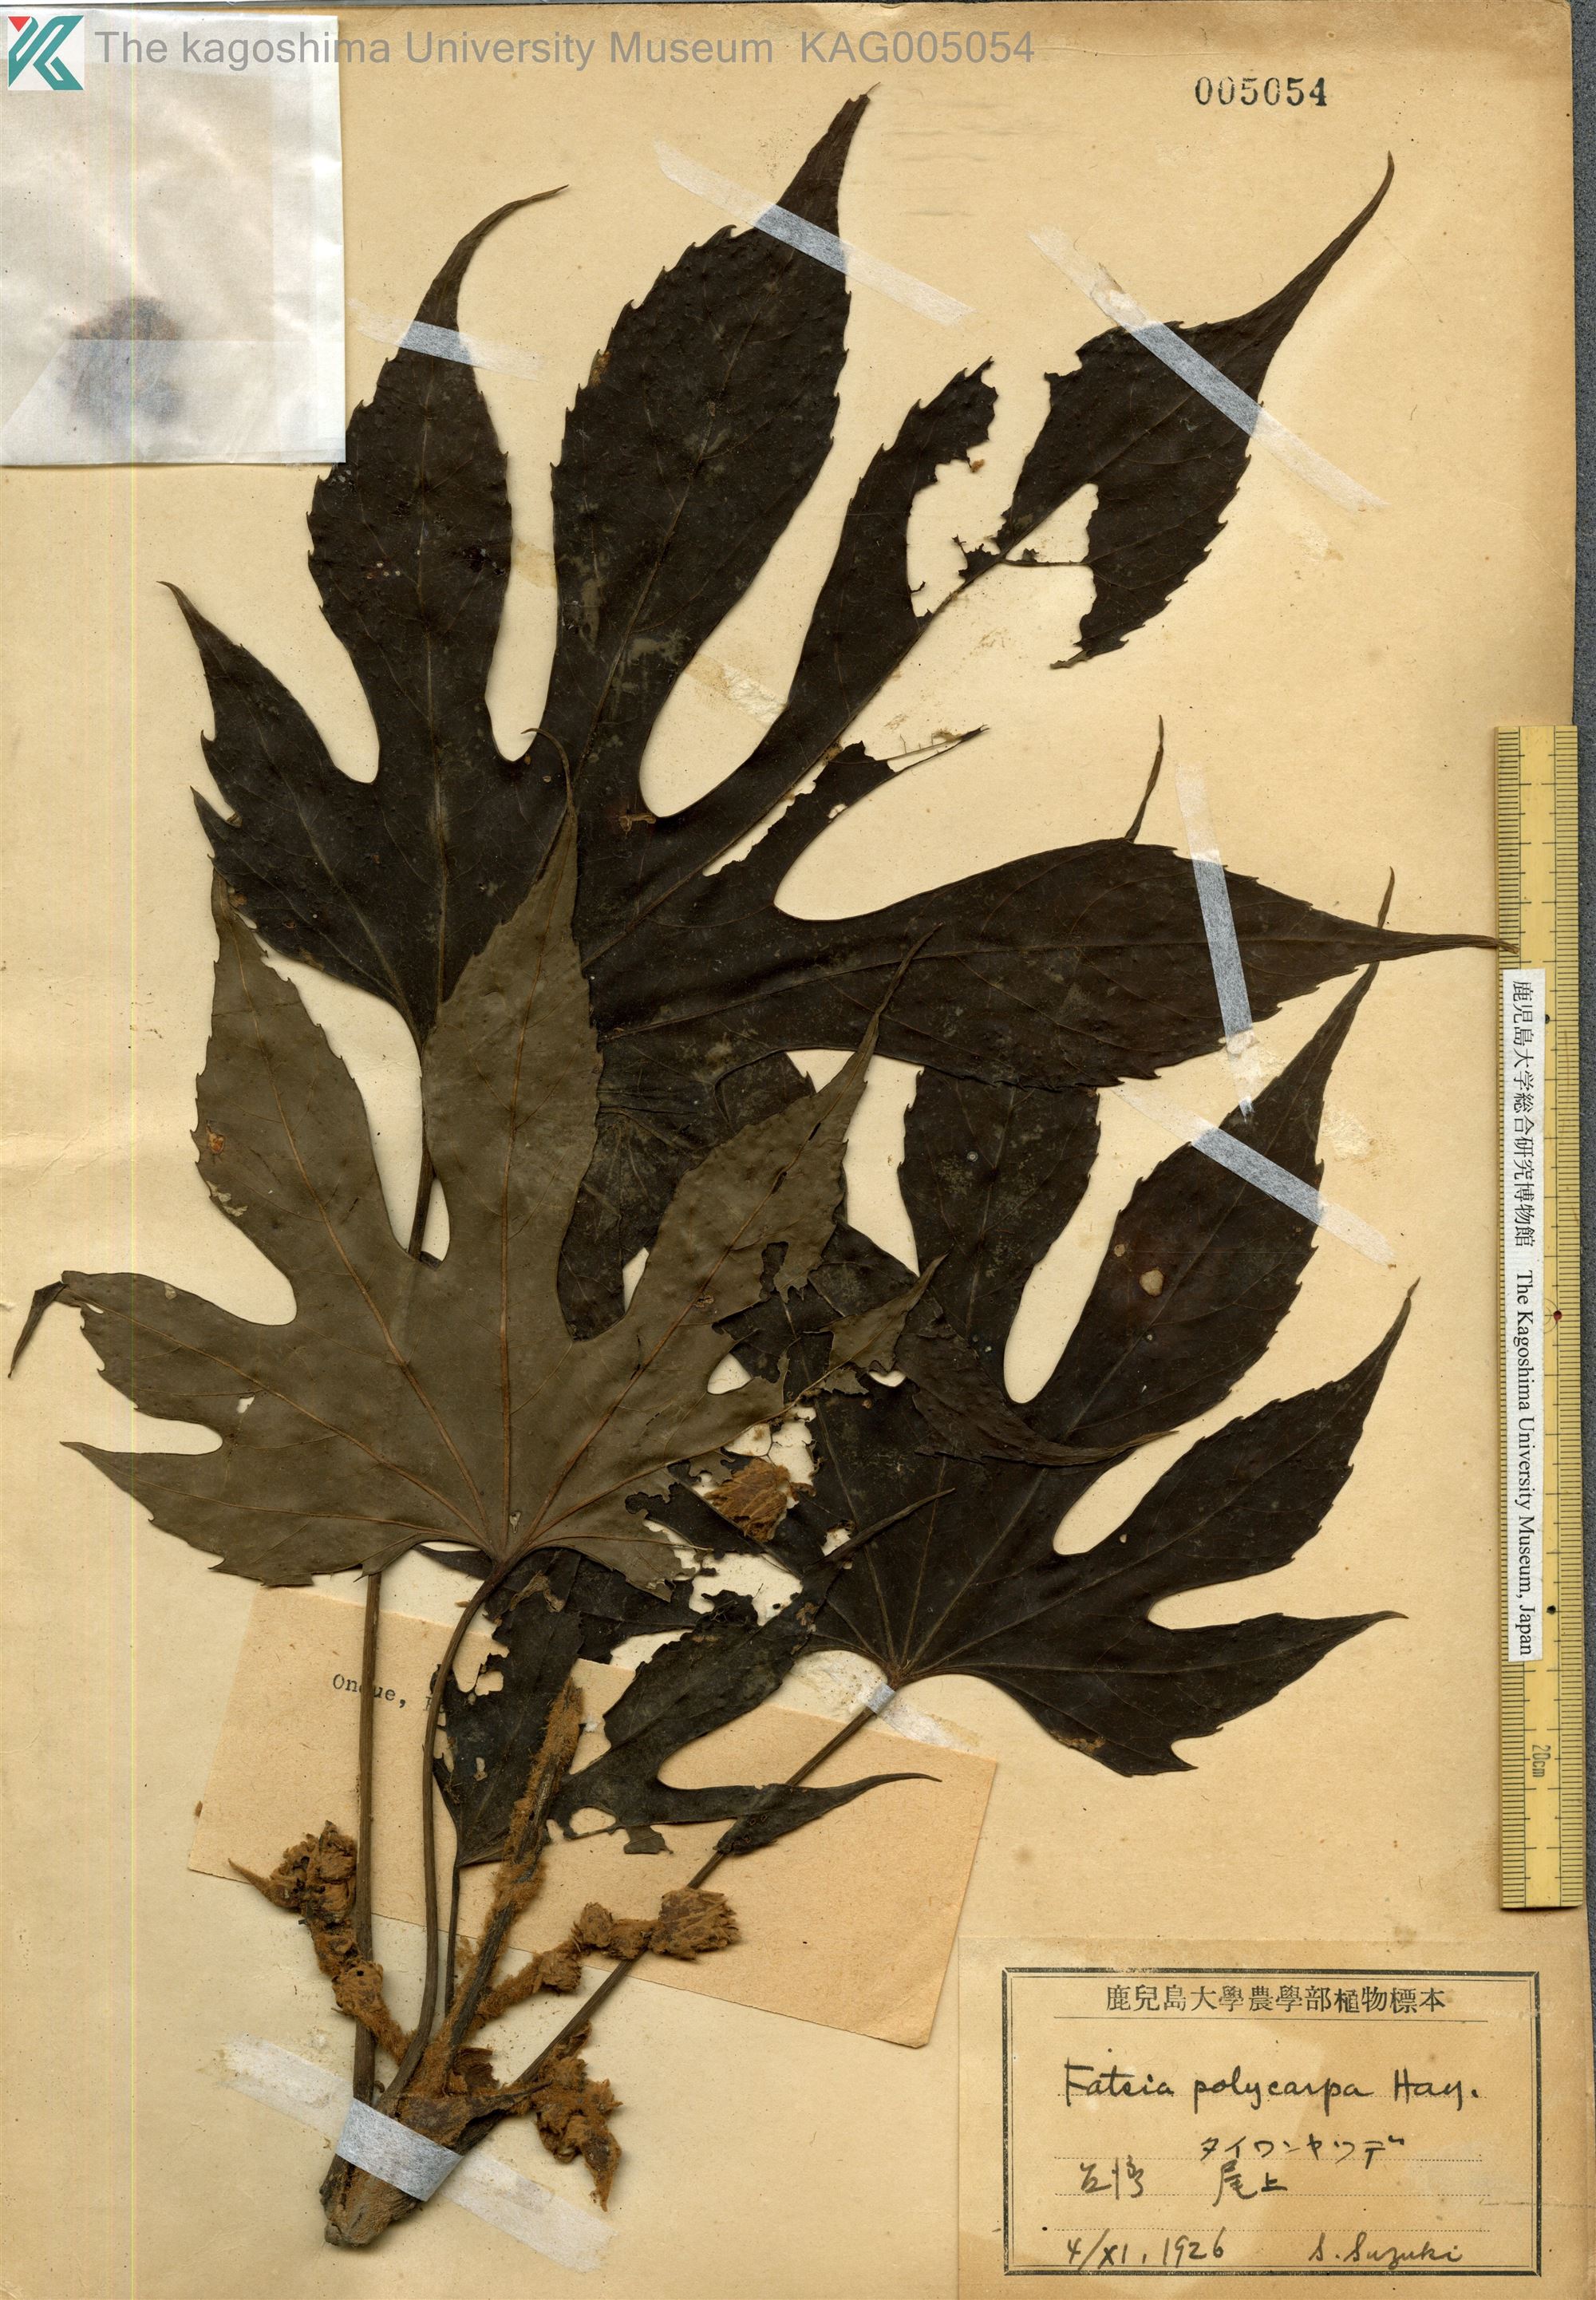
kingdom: Plantae
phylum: Tracheophyta
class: Magnoliopsida
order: Apiales
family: Araliaceae
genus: Fatsia
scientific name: Fatsia polycarpa
